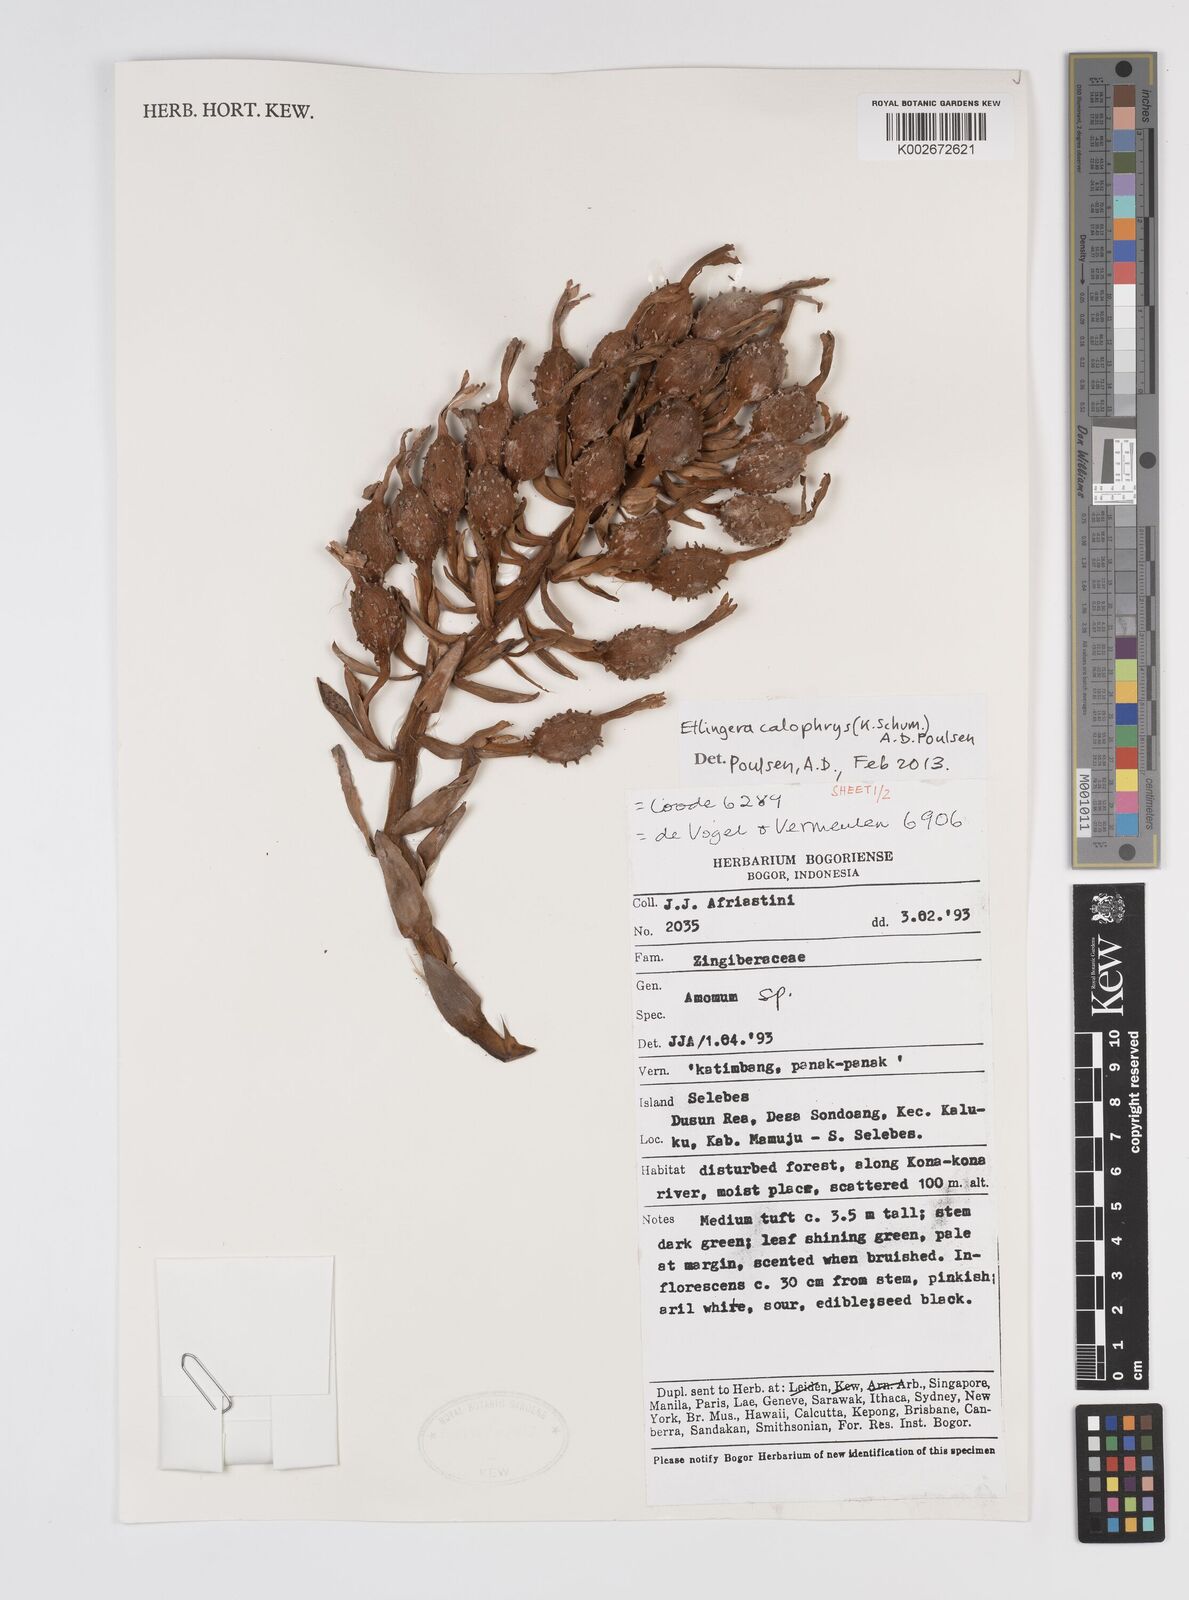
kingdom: Plantae
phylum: Tracheophyta
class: Liliopsida
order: Zingiberales
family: Zingiberaceae
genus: Etlingera
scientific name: Etlingera calophrys
